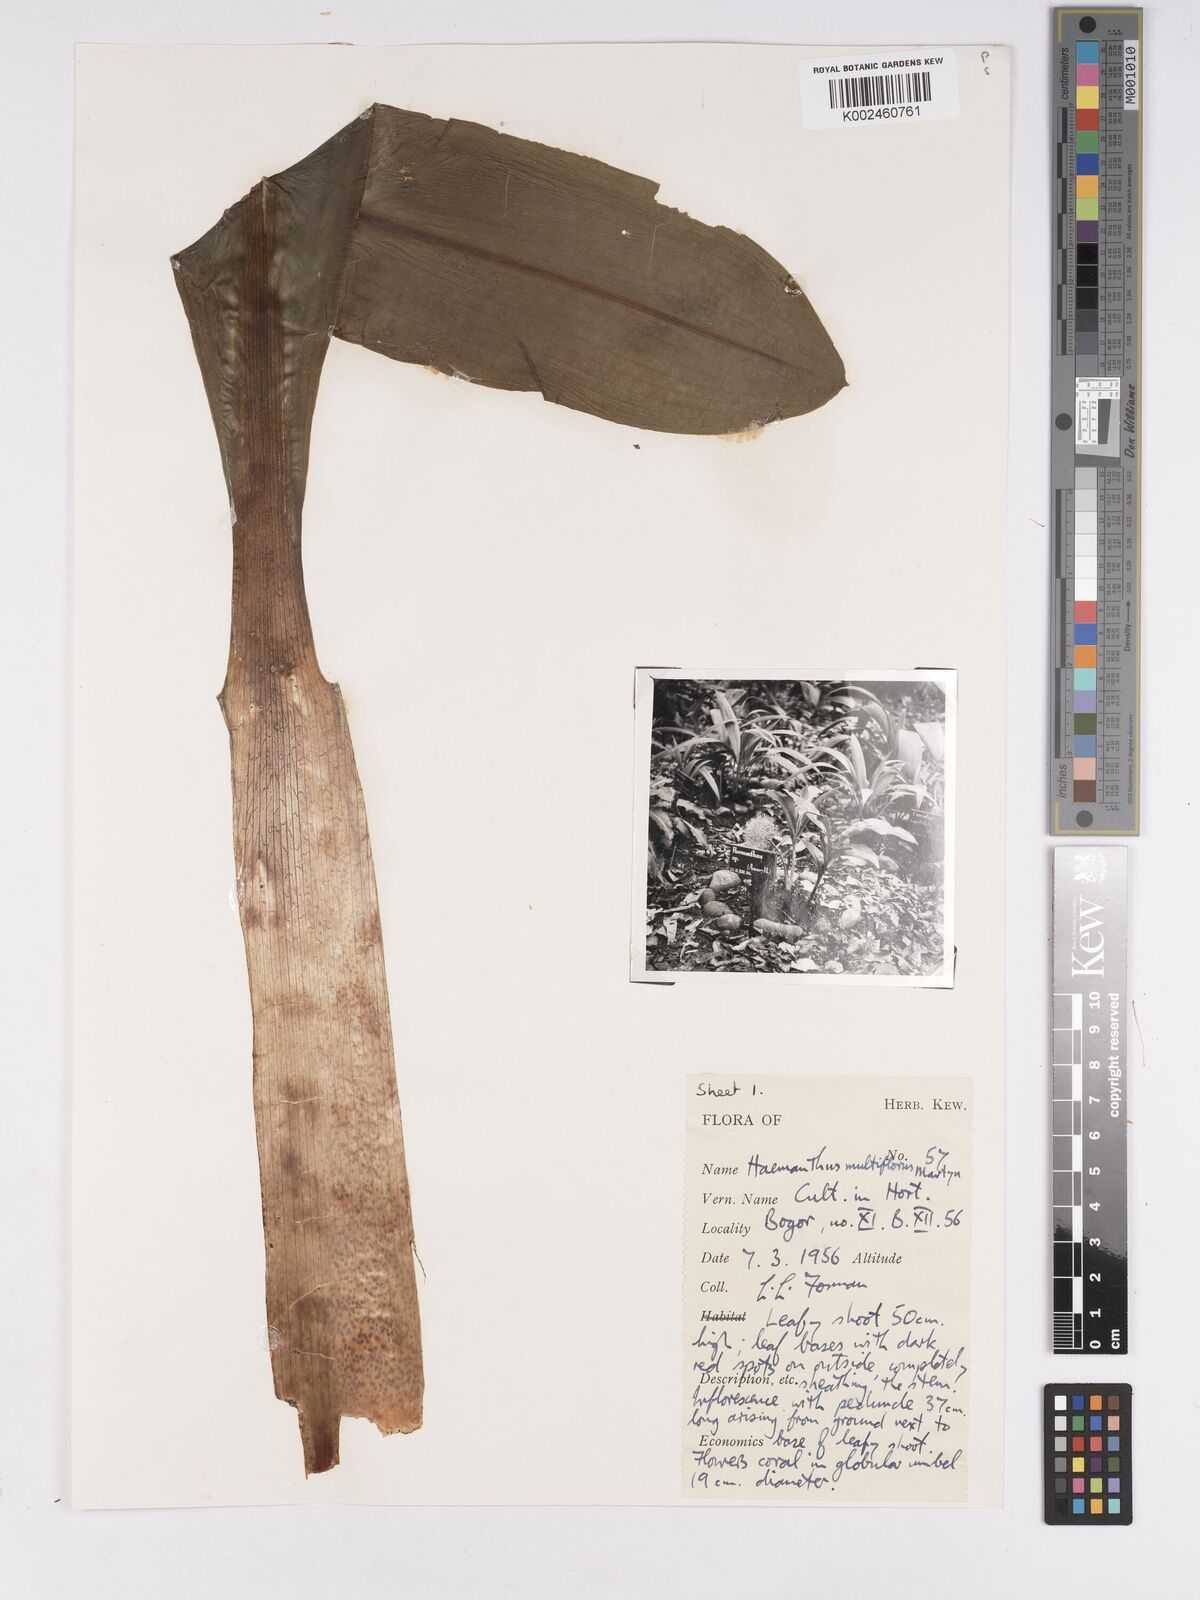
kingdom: Plantae
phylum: Tracheophyta
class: Liliopsida
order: Asparagales
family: Amaryllidaceae
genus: Scadoxus
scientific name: Scadoxus
